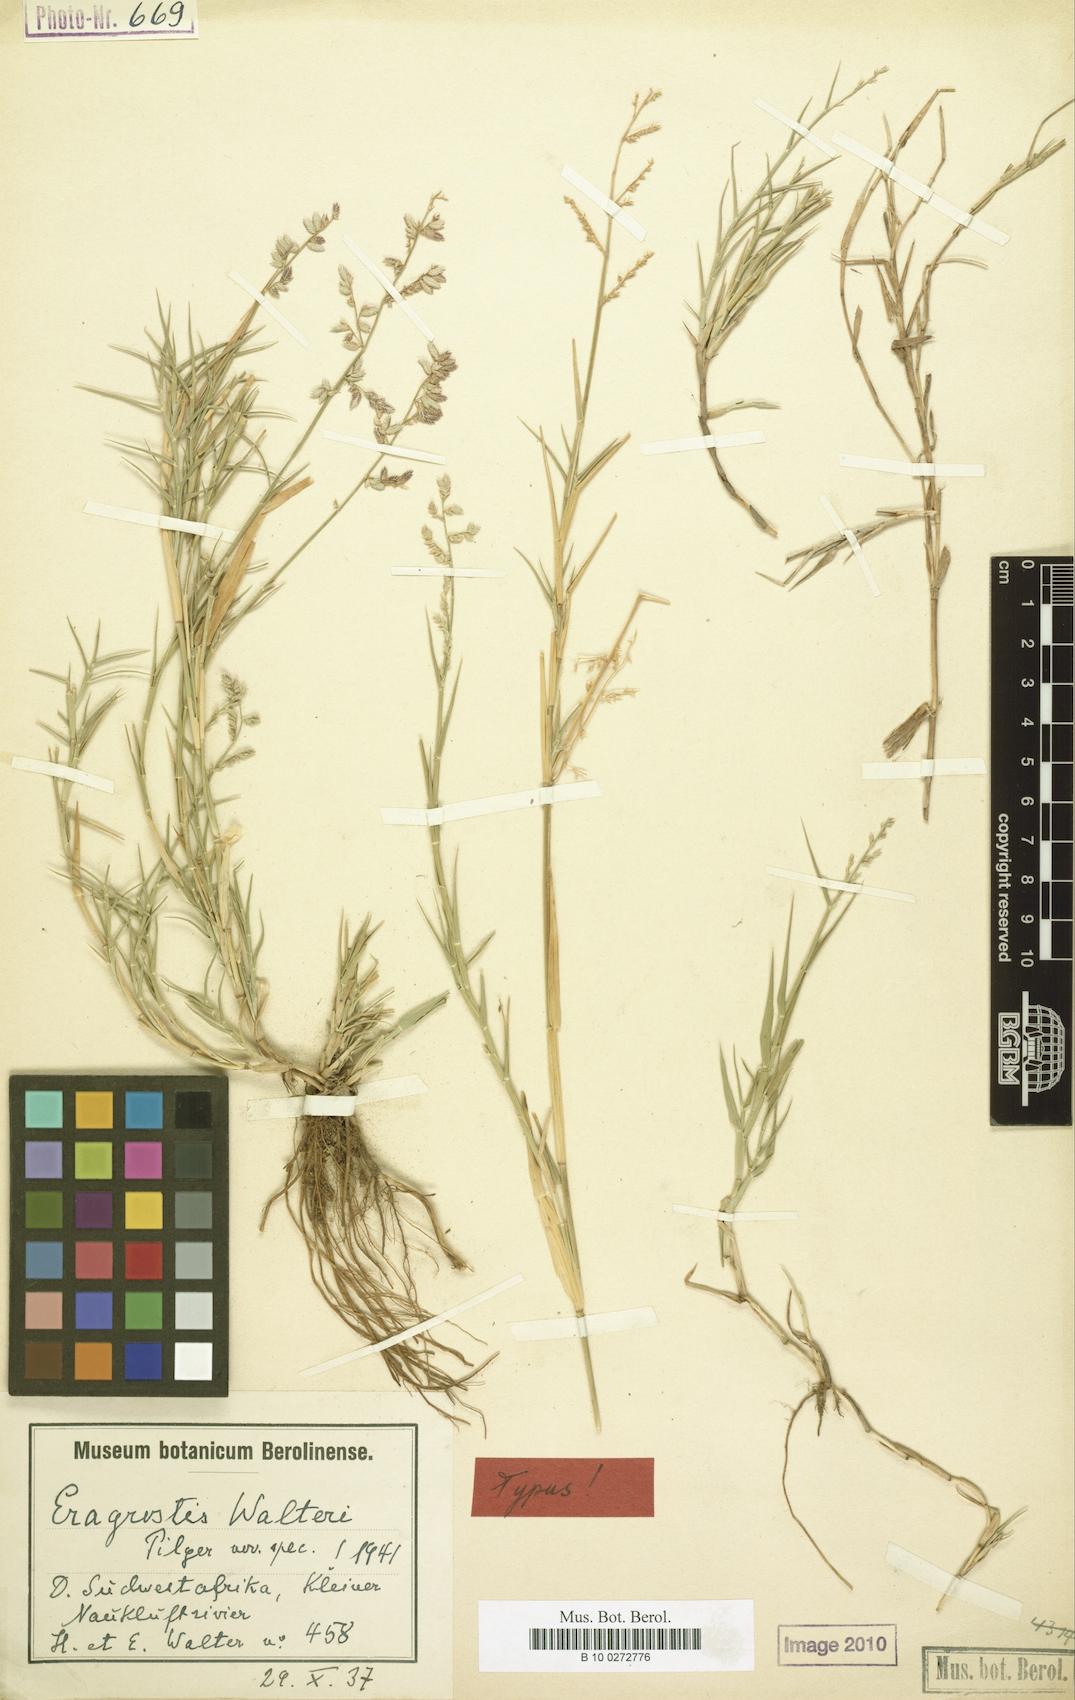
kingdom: Plantae
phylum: Tracheophyta
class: Liliopsida
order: Poales
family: Poaceae
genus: Pratochloa
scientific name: Pratochloa walteri
